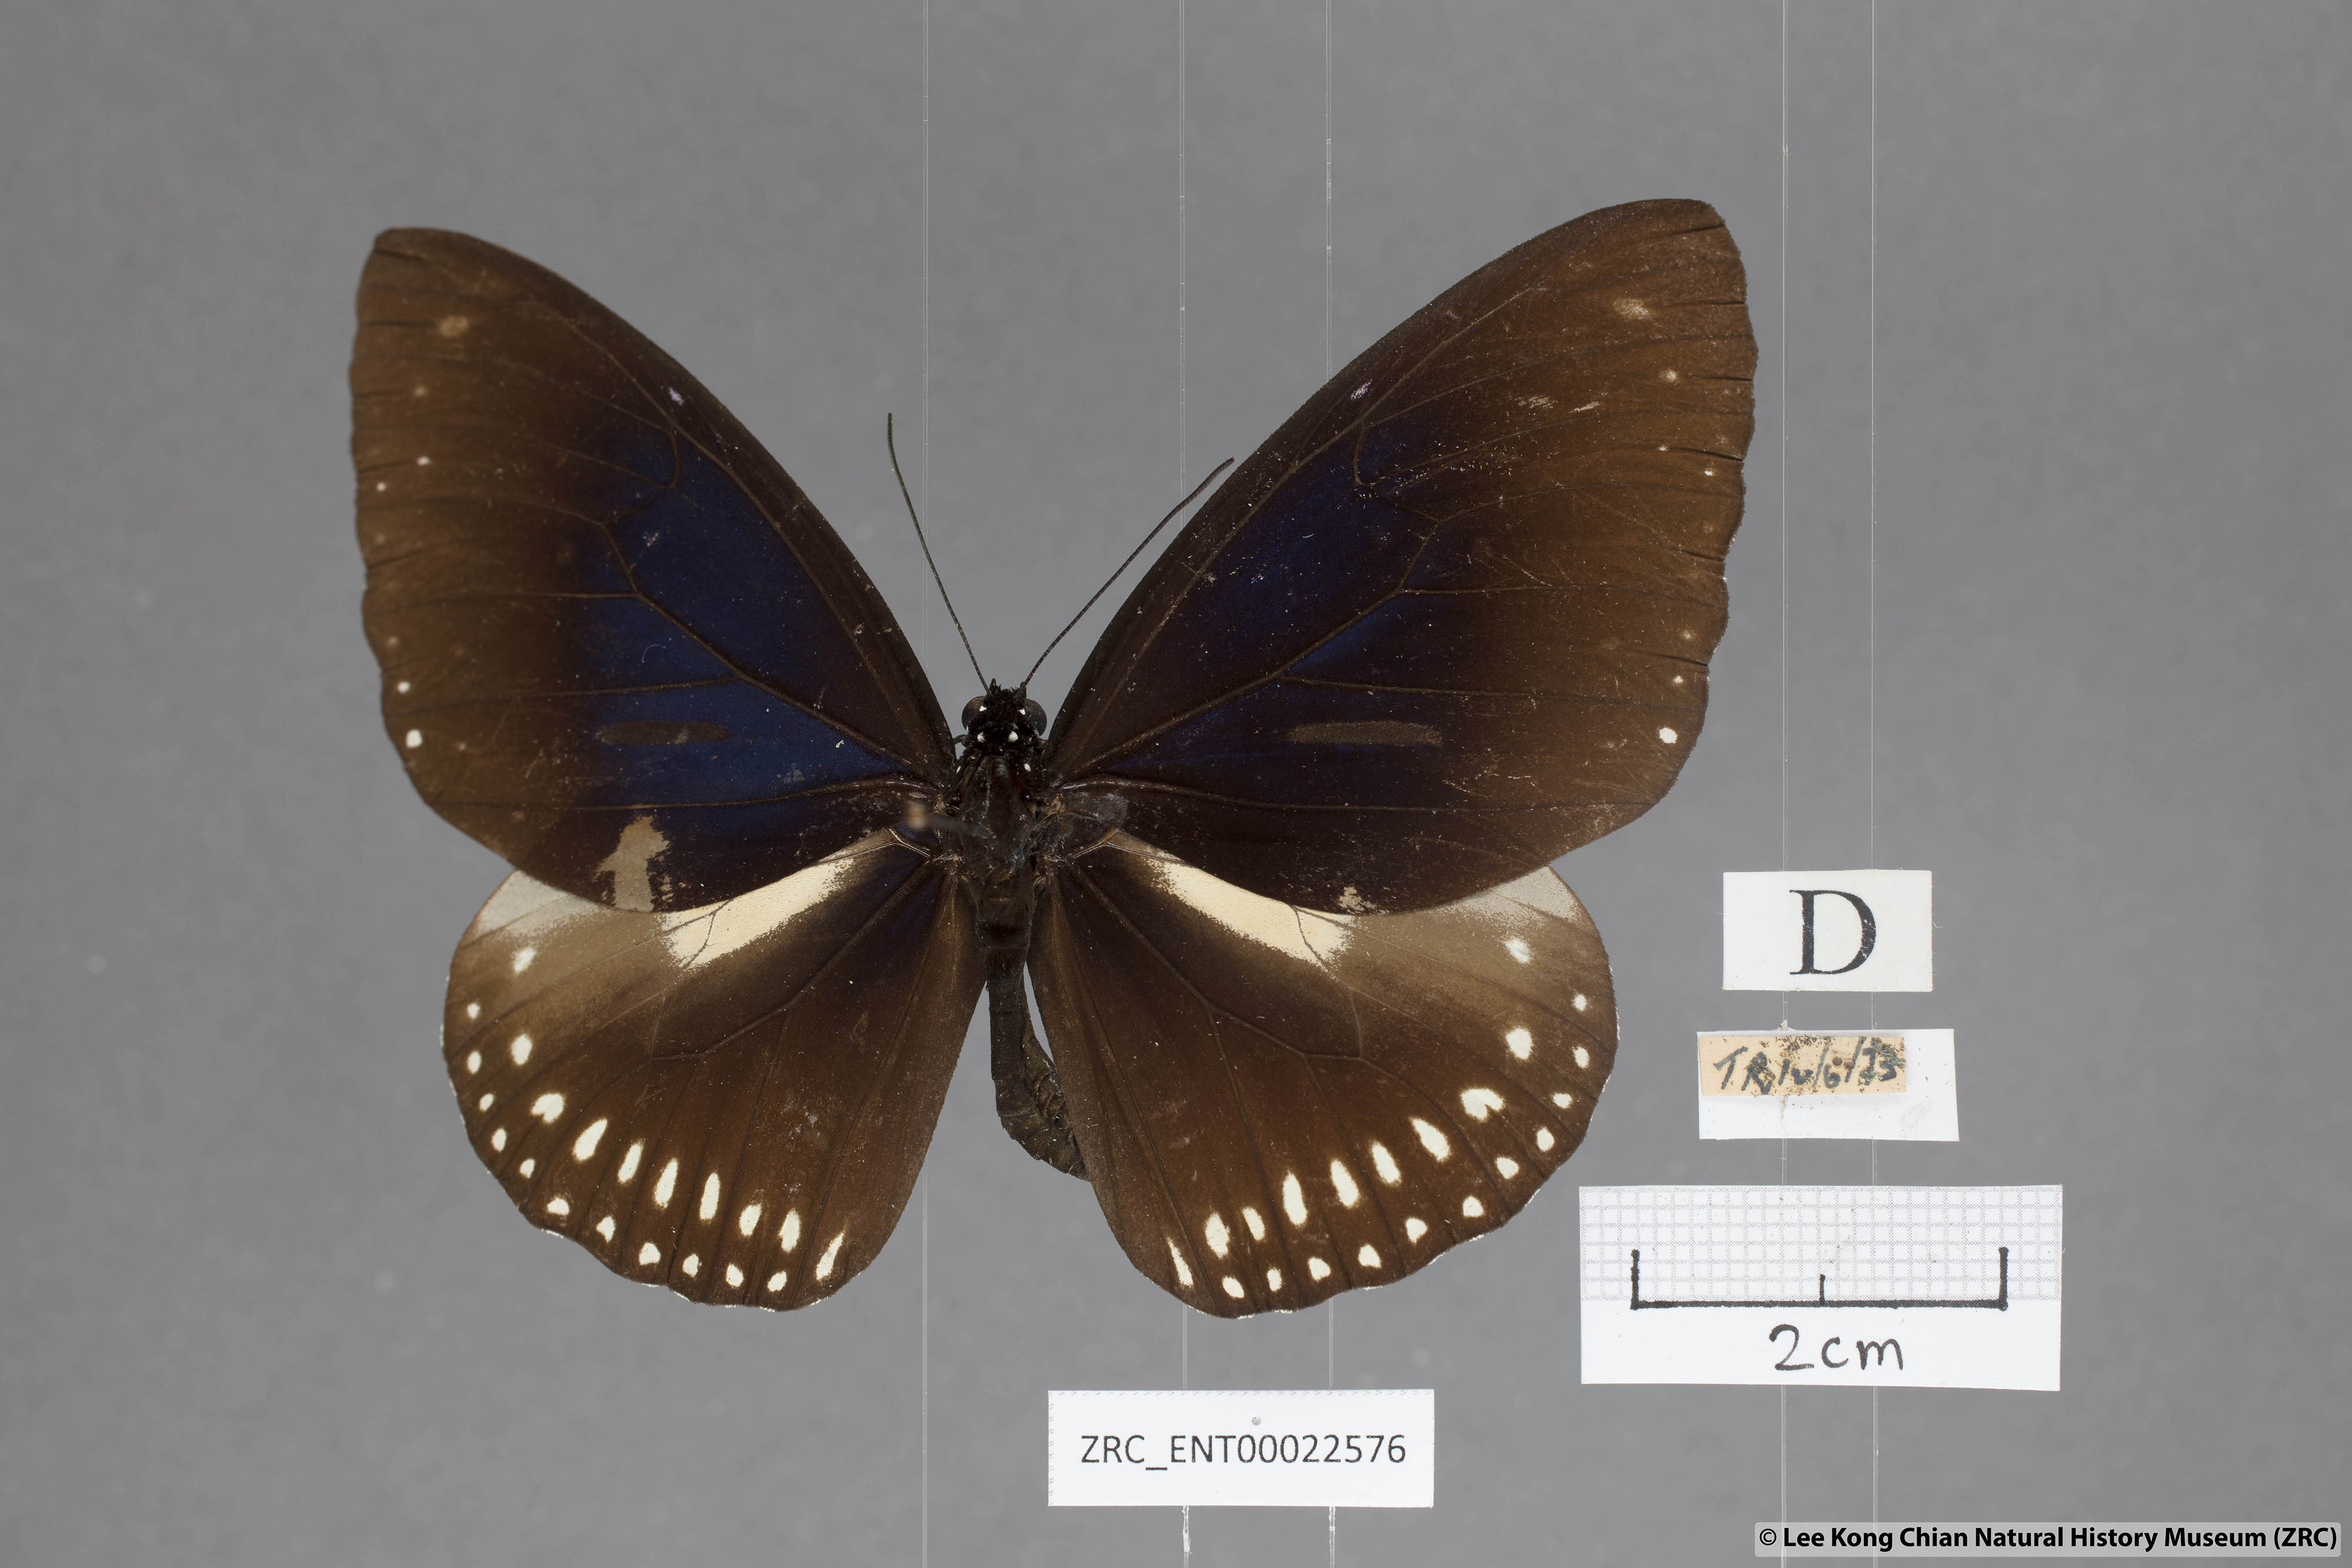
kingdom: Animalia
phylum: Arthropoda
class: Insecta
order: Lepidoptera
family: Nymphalidae
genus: Euploea
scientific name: Euploea midamus
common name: Blue-spotted crow butterfly
